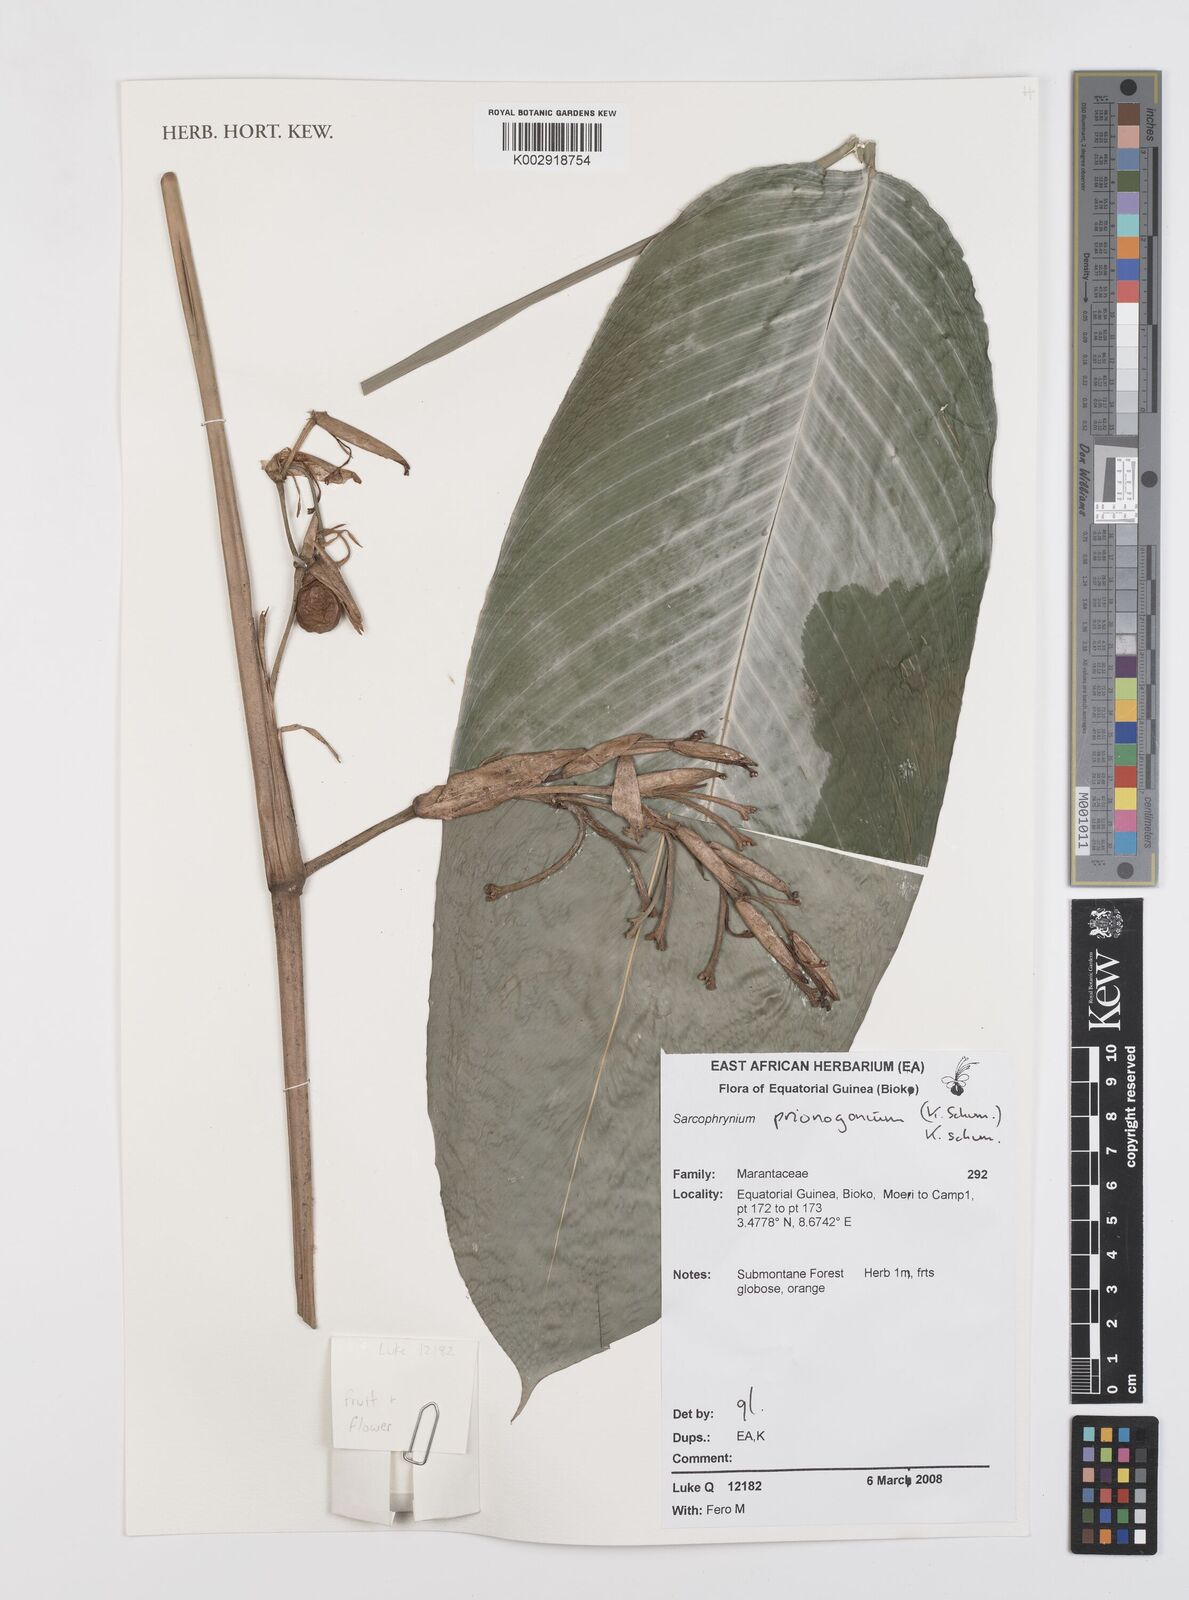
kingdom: Plantae
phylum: Tracheophyta
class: Liliopsida
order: Zingiberales
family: Marantaceae
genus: Sarcophrynium
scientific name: Sarcophrynium prionogonium
